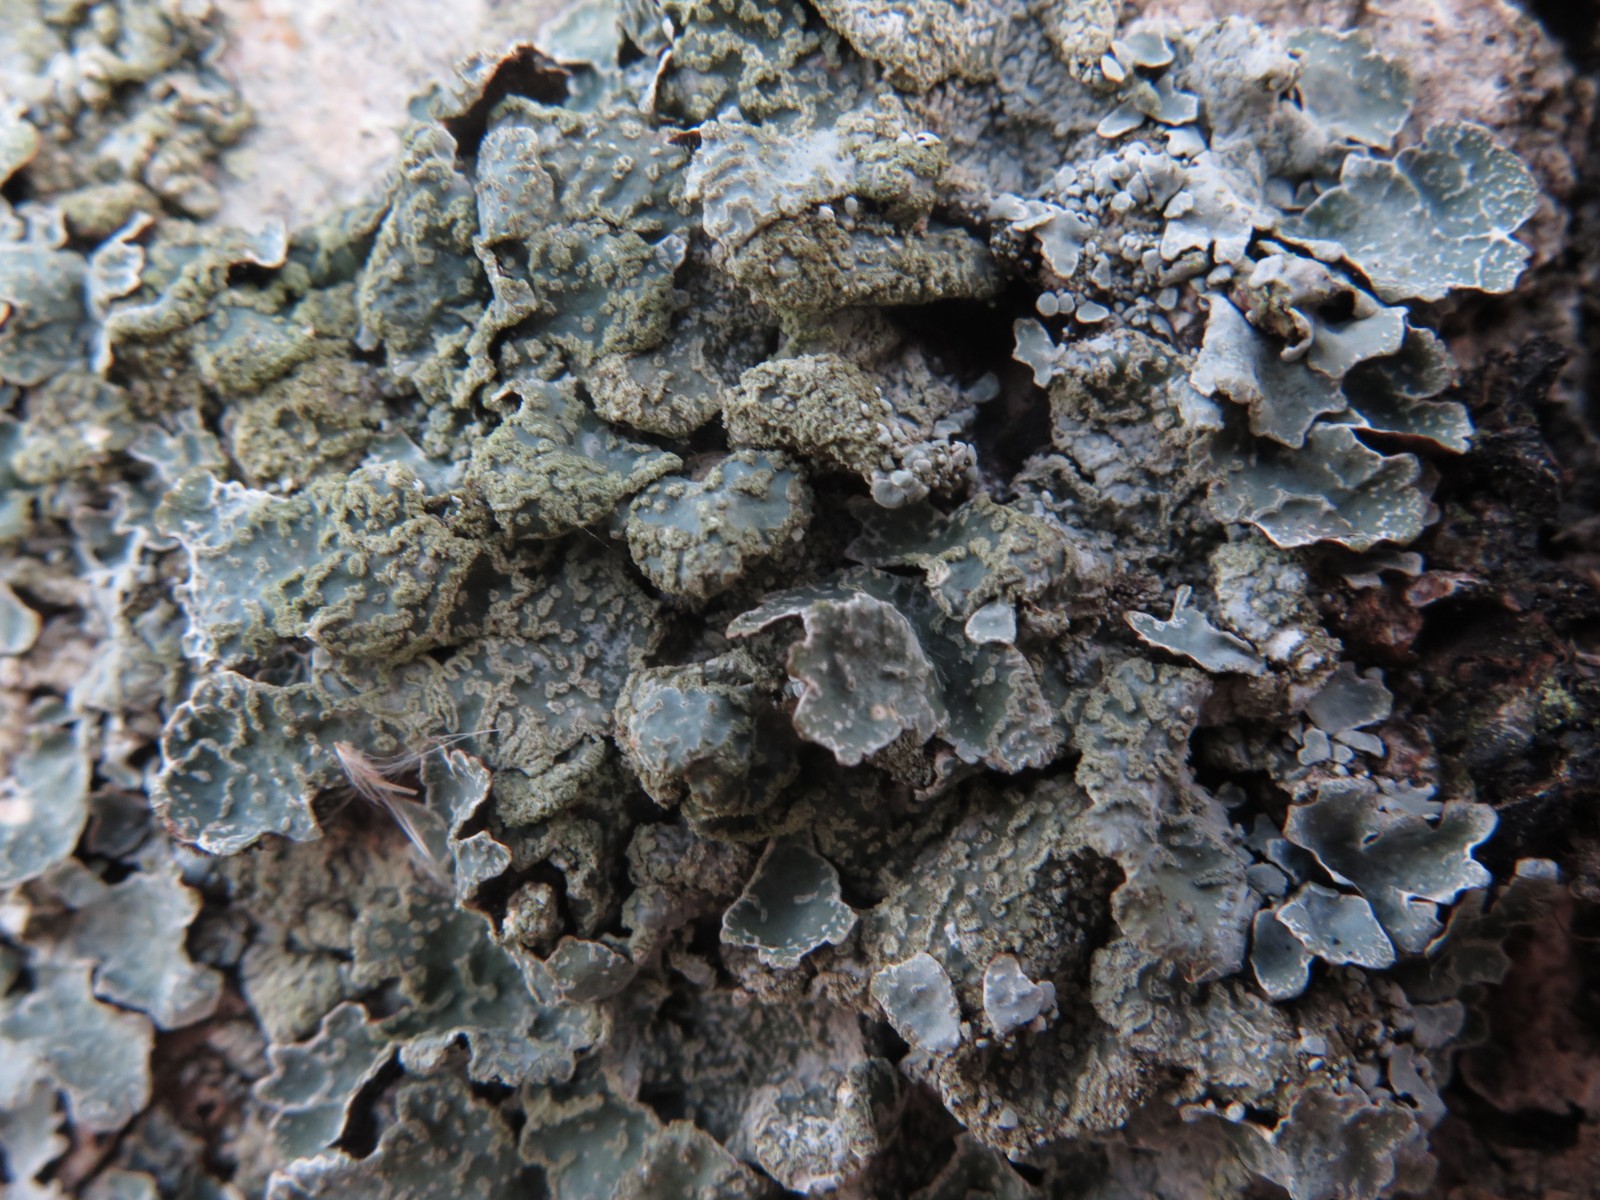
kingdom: Fungi
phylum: Ascomycota
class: Lecanoromycetes
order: Lecanorales
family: Parmeliaceae
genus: Parmelia
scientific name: Parmelia sulcata
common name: rynket skållav
